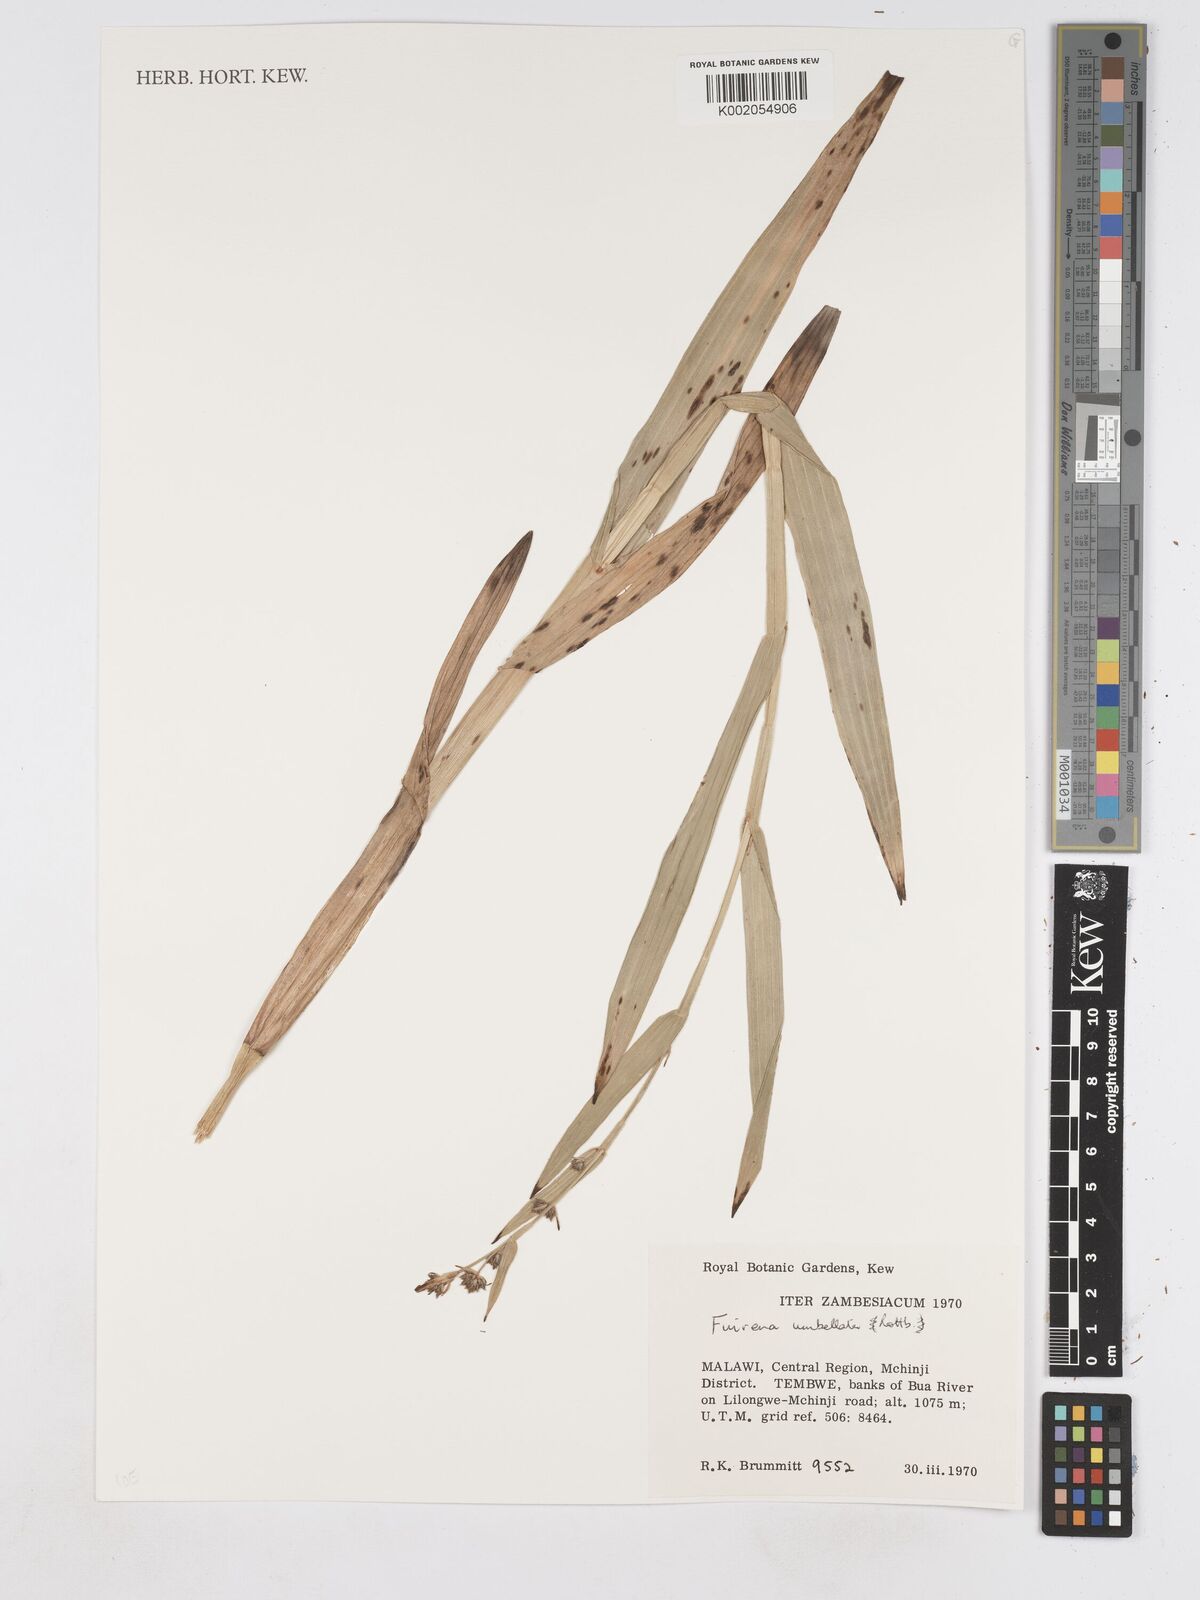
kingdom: Plantae
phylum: Tracheophyta
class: Liliopsida
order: Poales
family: Cyperaceae
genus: Fuirena
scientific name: Fuirena umbellata
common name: Yefen
